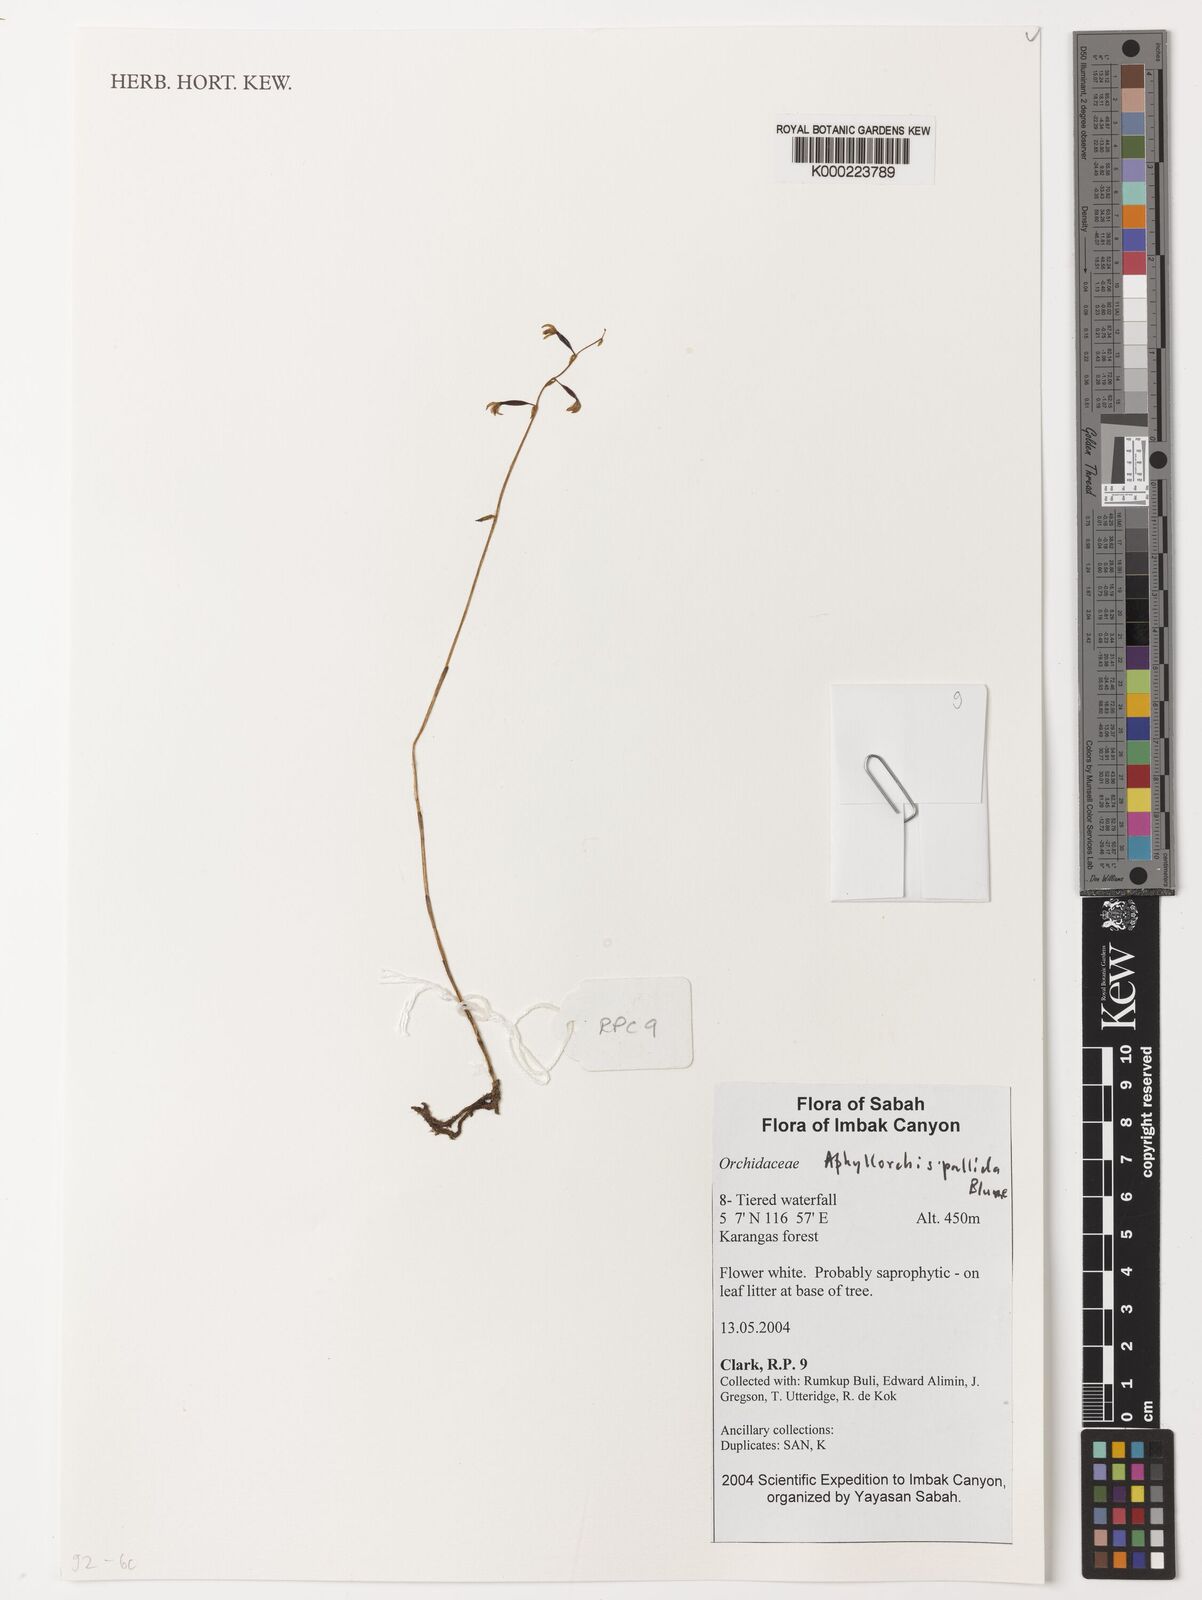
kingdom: Plantae
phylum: Tracheophyta
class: Liliopsida
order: Asparagales
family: Orchidaceae
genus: Aphyllorchis
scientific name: Aphyllorchis pallida
